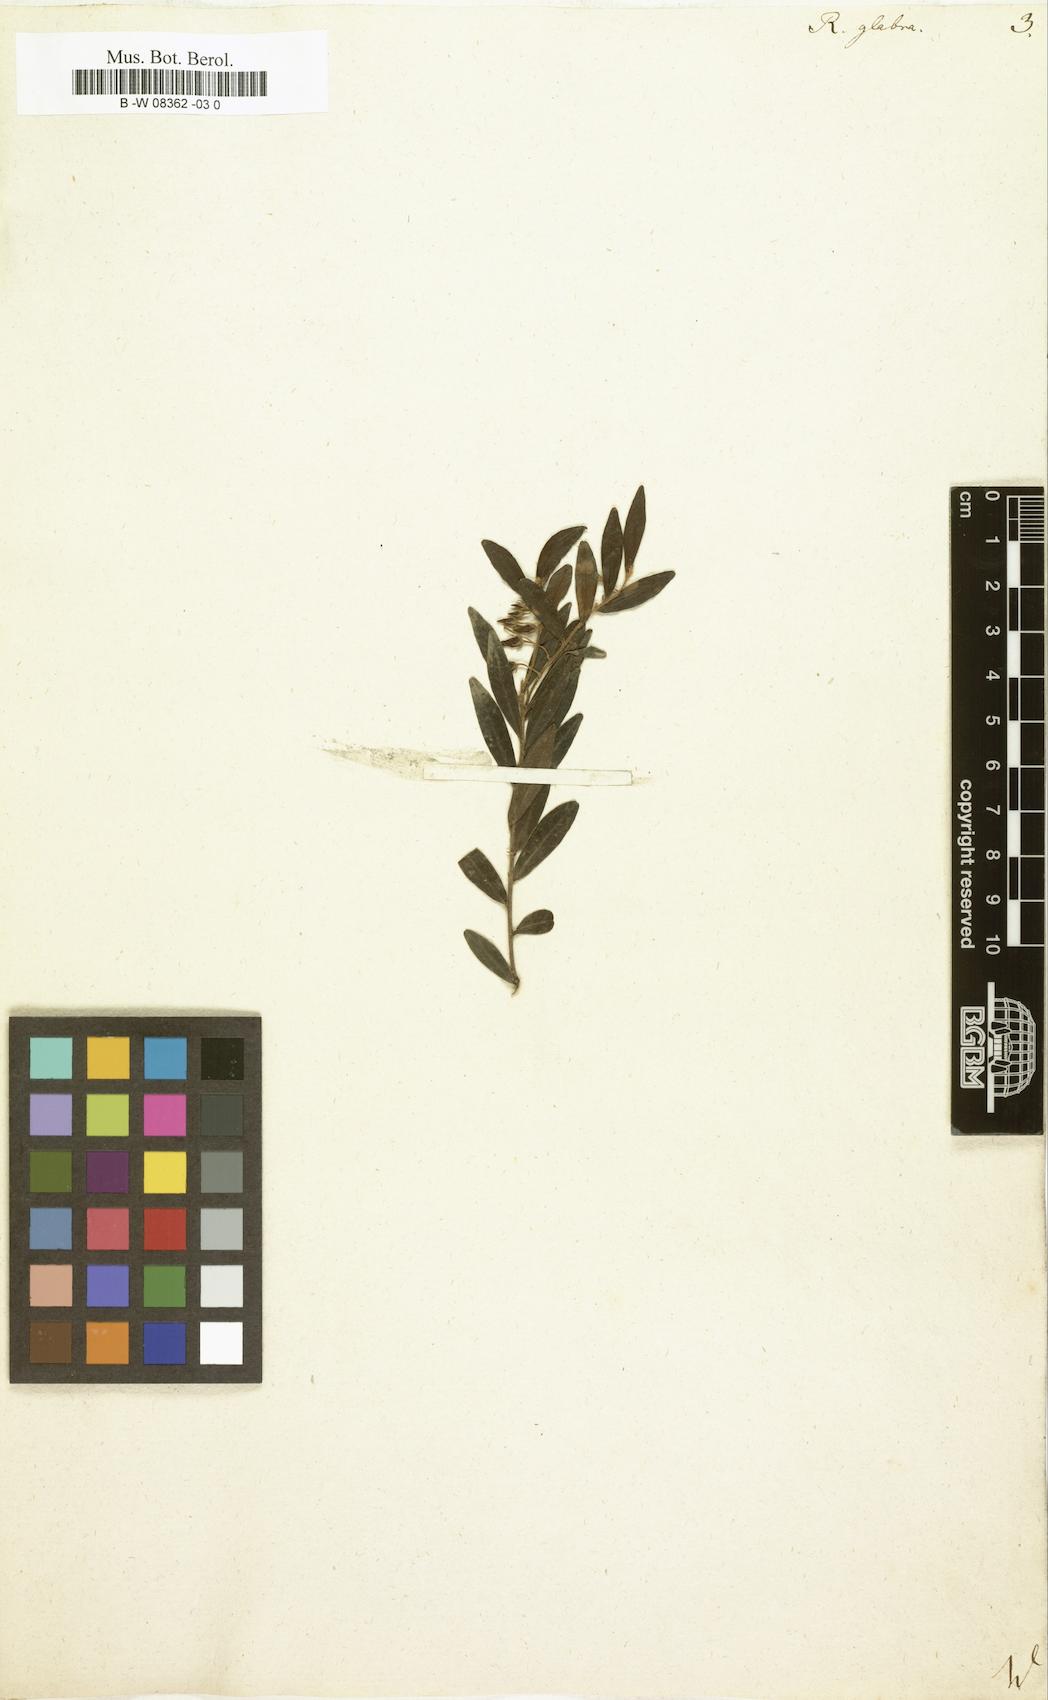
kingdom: Plantae
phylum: Tracheophyta
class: Magnoliopsida
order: Ericales
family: Ebenaceae
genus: Diospyros
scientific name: Diospyros glabra
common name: Fynbos star apple
